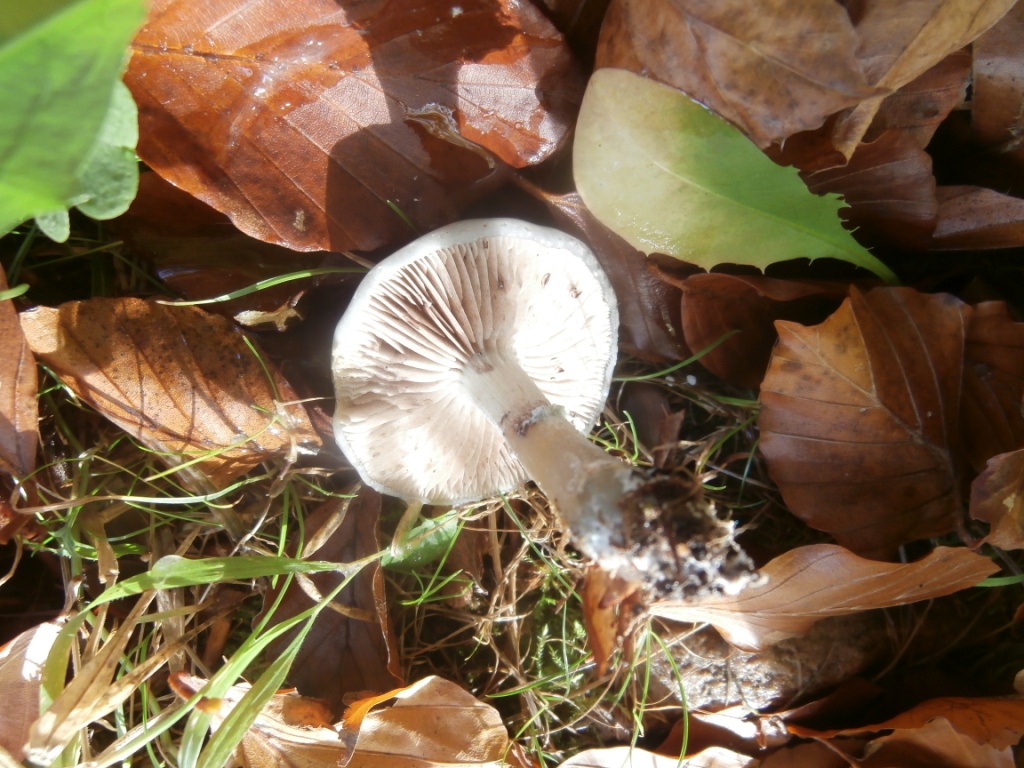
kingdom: Fungi
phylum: Basidiomycota
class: Agaricomycetes
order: Agaricales
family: Strophariaceae
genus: Stropharia
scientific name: Stropharia cyanea
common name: blågrøn bredblad
